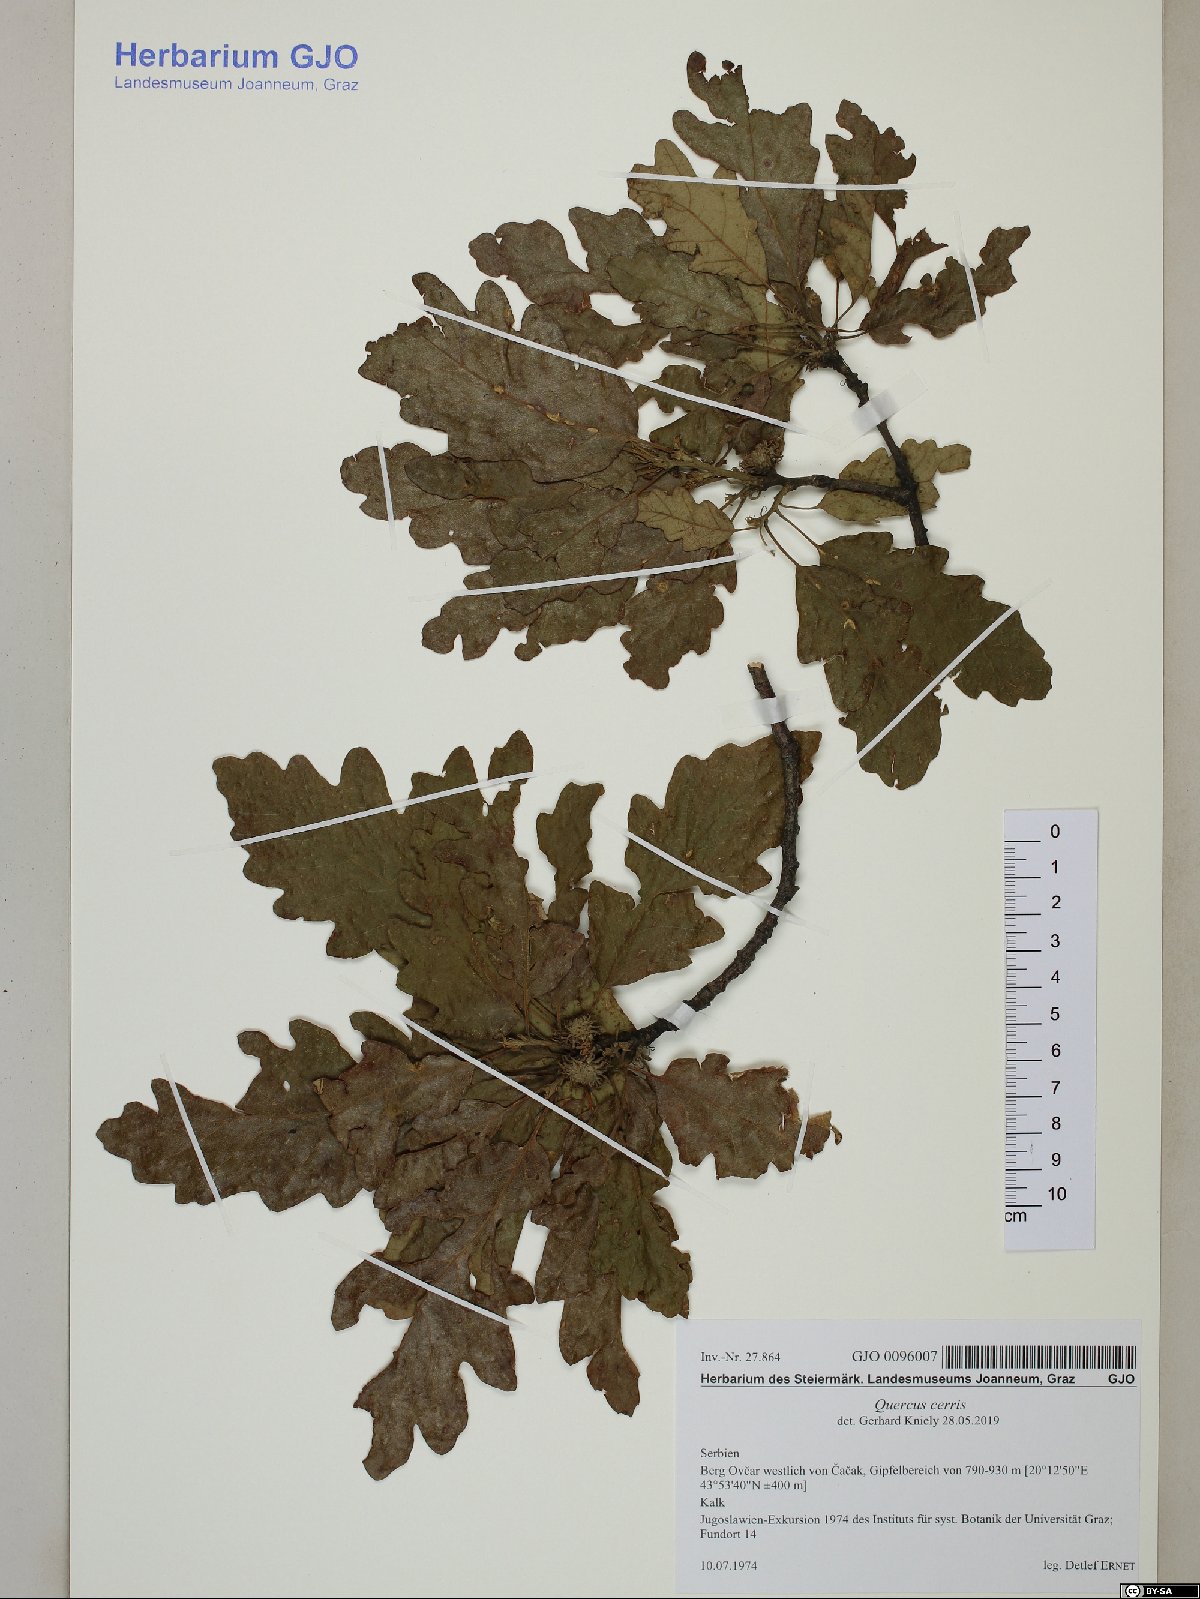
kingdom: Plantae
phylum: Tracheophyta
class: Magnoliopsida
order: Fagales
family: Fagaceae
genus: Quercus
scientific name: Quercus cerris
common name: Turkey oak
